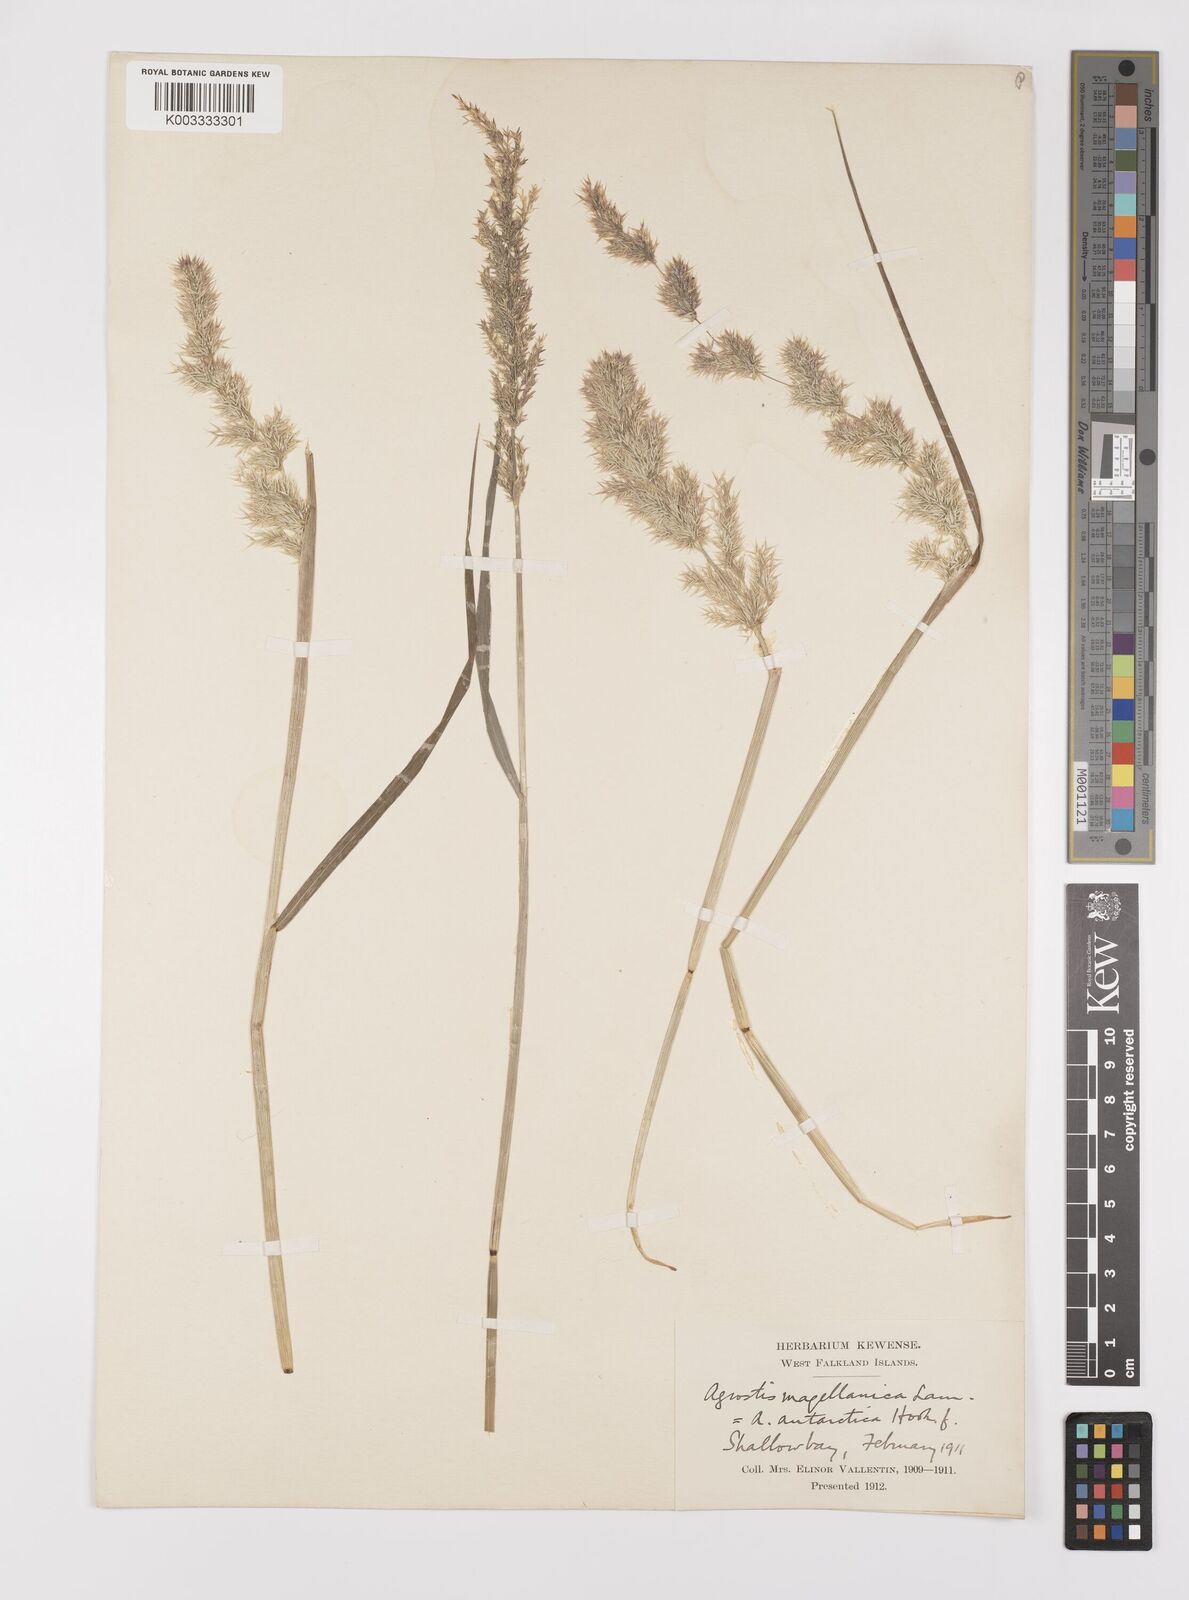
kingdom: Plantae
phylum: Tracheophyta
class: Liliopsida
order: Poales
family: Poaceae
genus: Polypogon
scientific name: Polypogon magellanicus
